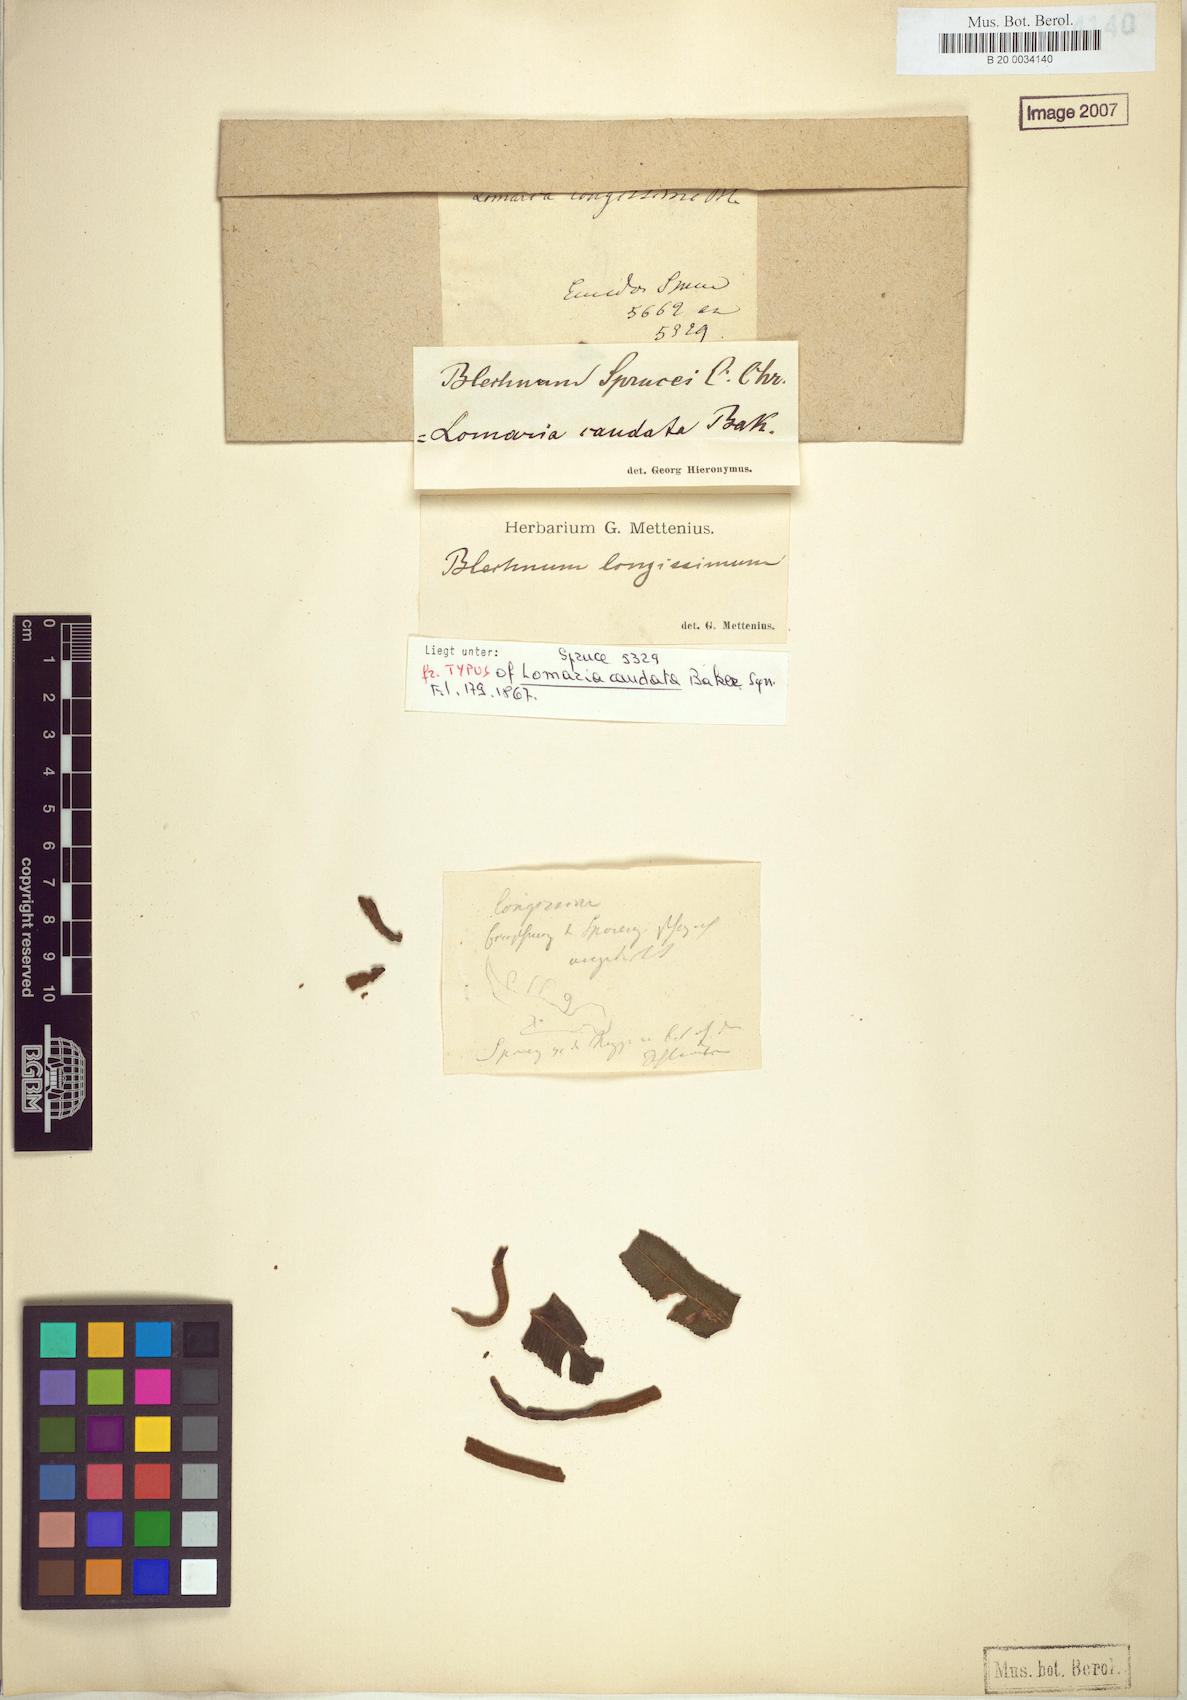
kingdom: Plantae
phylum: Tracheophyta
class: Polypodiopsida
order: Polypodiales
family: Blechnaceae
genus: Cranfillia
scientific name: Cranfillia caudata
